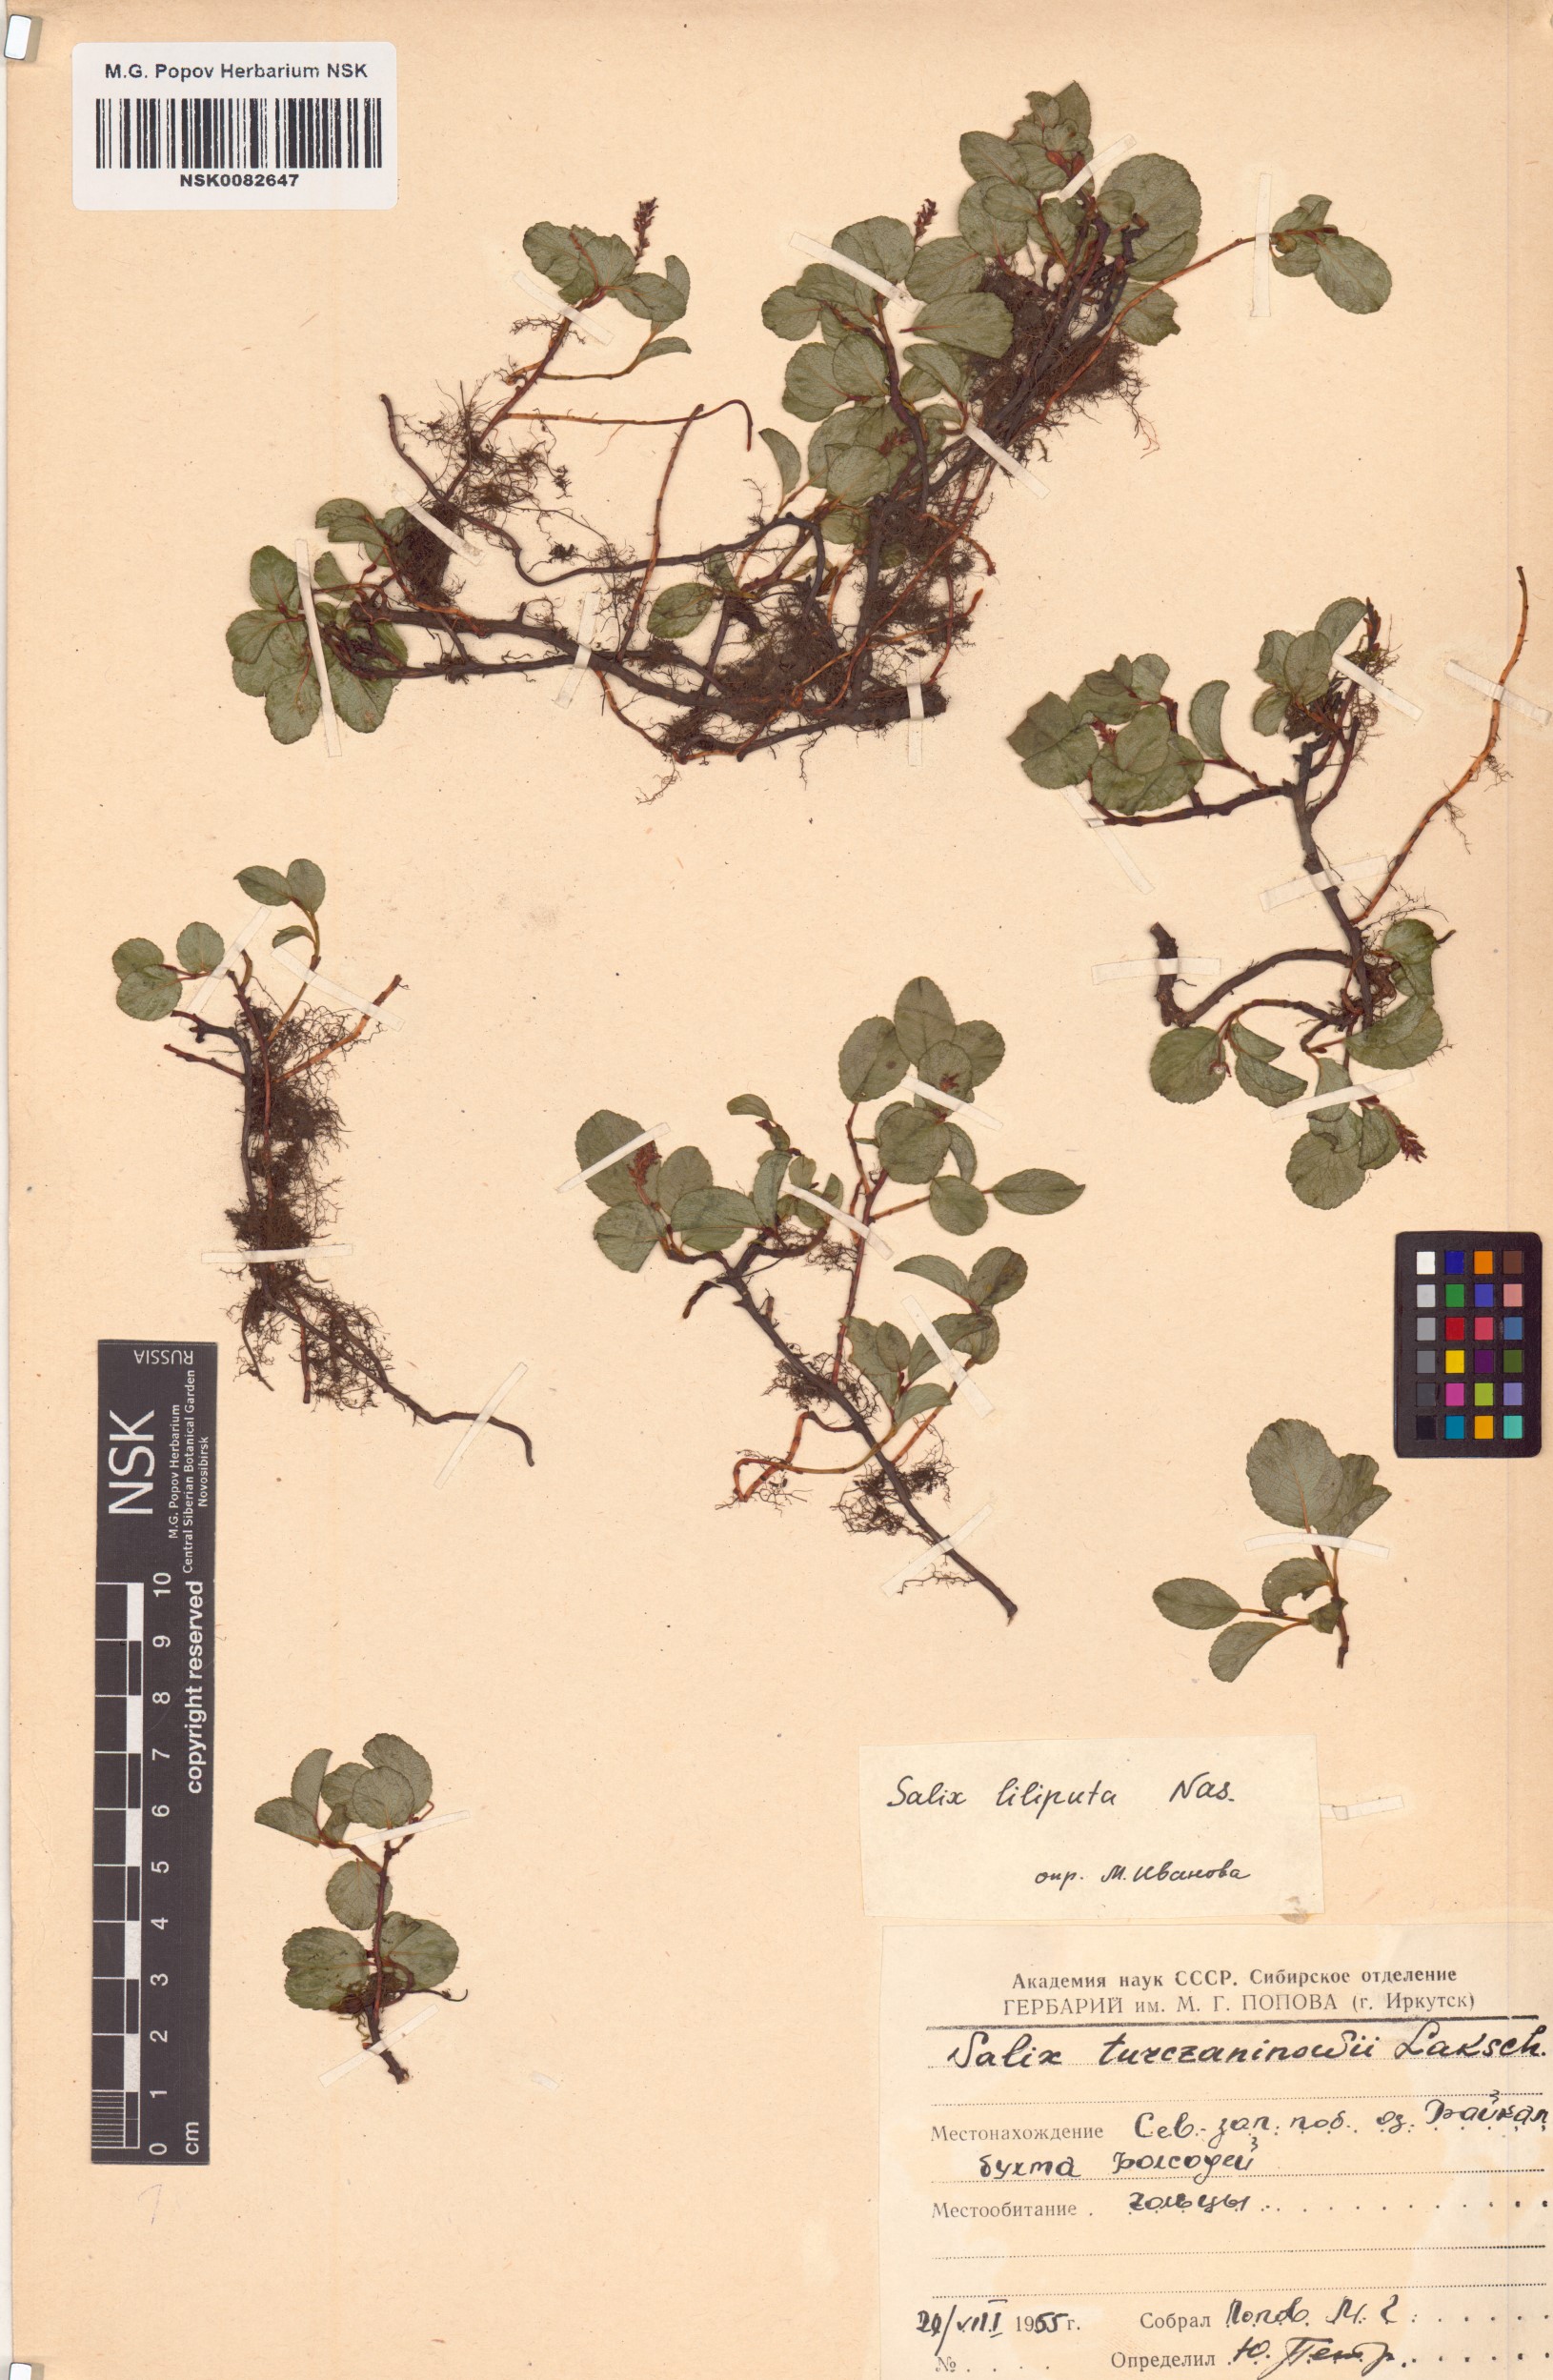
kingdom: Plantae
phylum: Tracheophyta
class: Magnoliopsida
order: Malpighiales
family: Salicaceae
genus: Salix
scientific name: Salix turczaninowii
